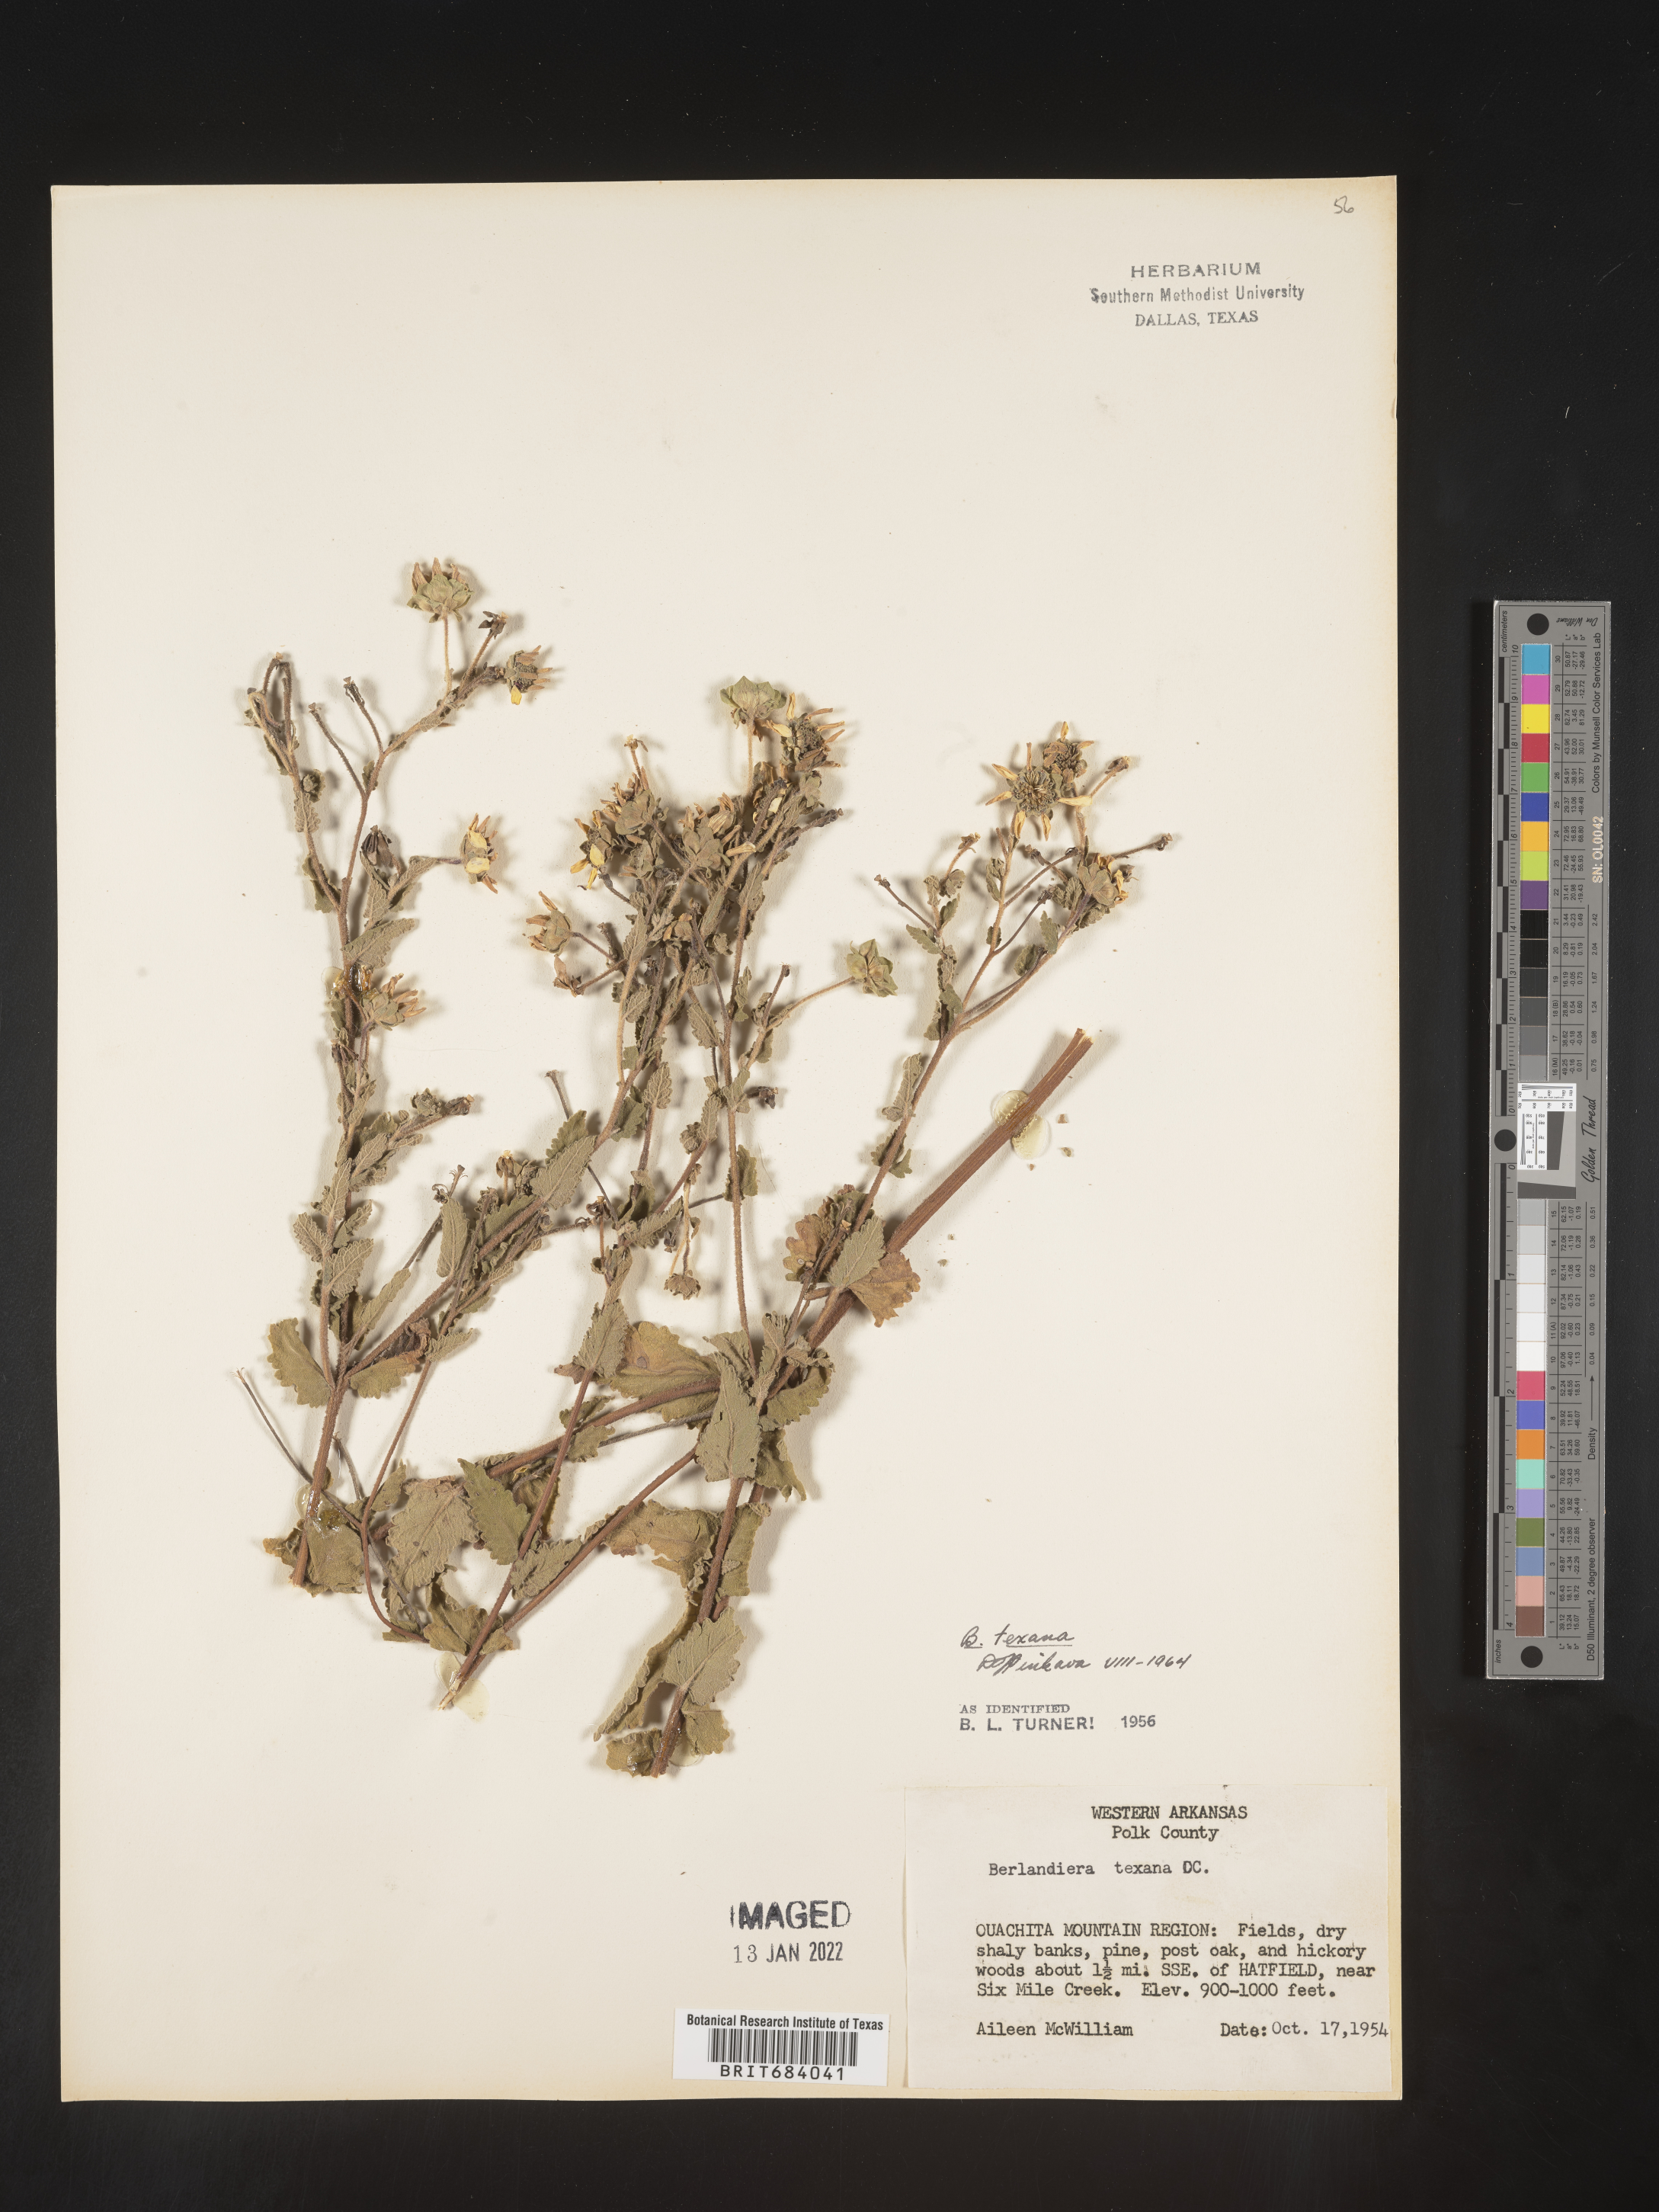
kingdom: Plantae
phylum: Tracheophyta
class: Magnoliopsida
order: Asterales
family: Asteraceae
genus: Berlandiera
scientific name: Berlandiera texana
